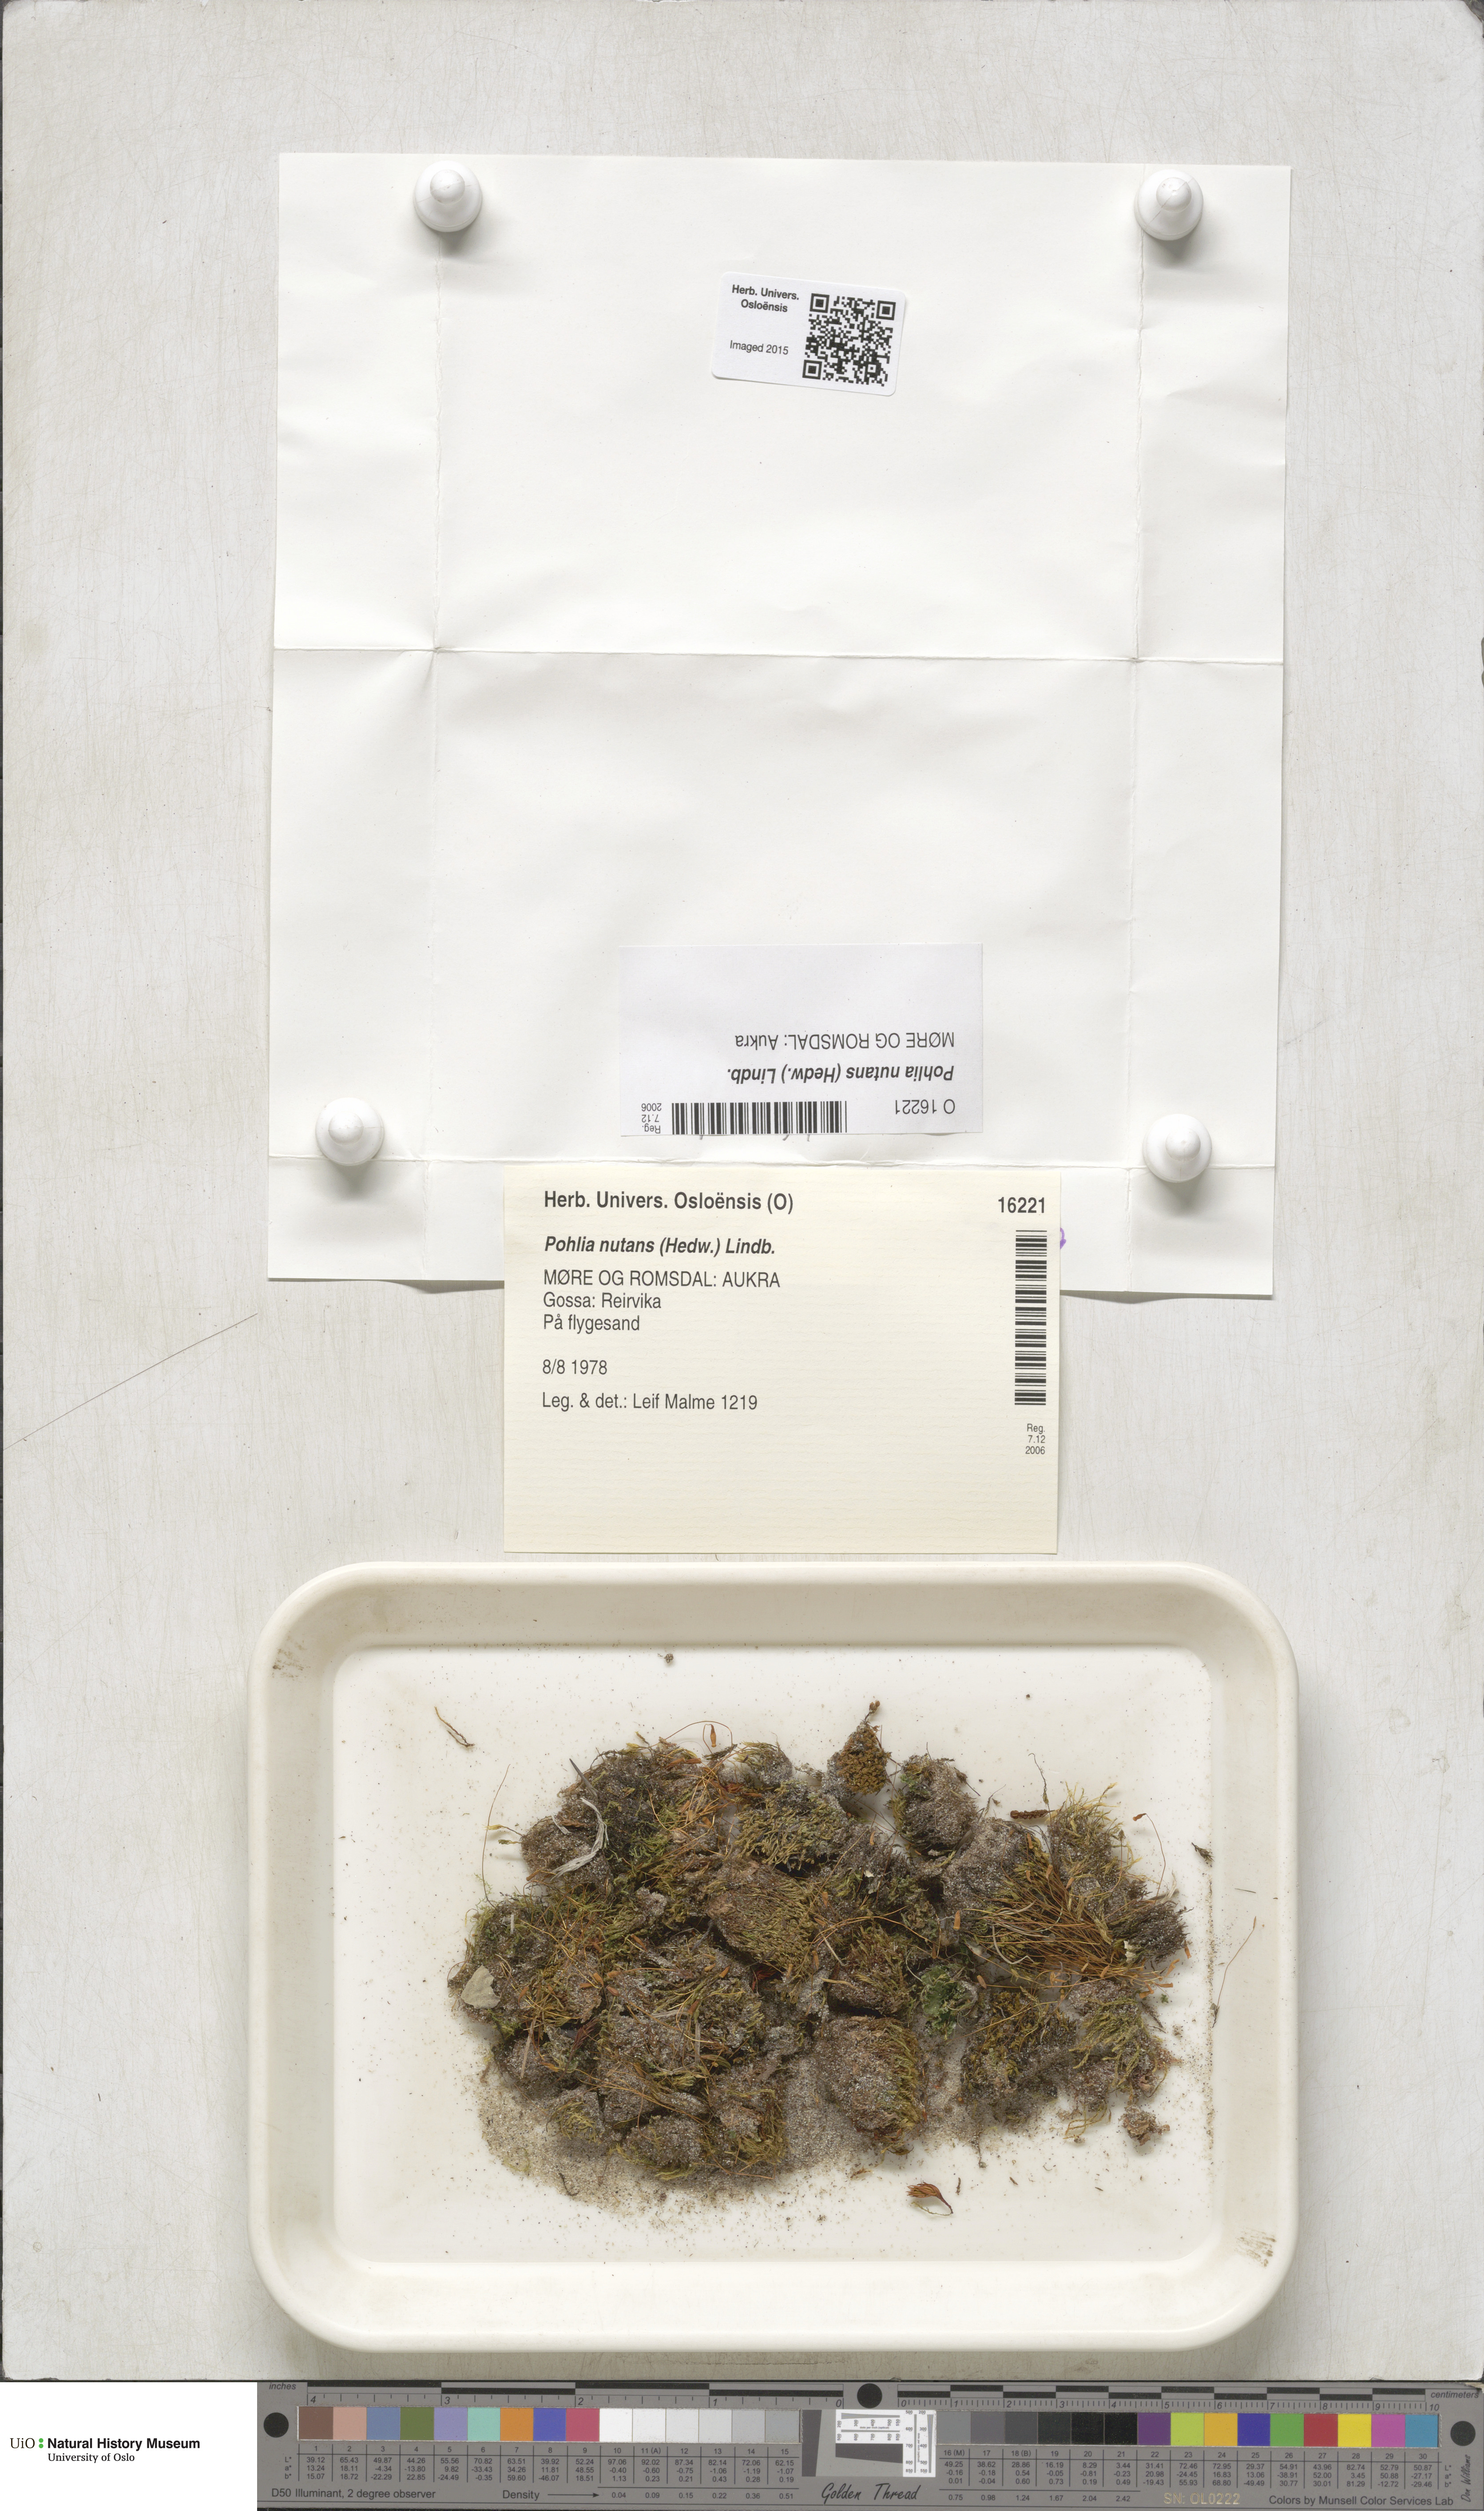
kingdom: Plantae
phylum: Bryophyta
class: Bryopsida
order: Bryales
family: Mniaceae
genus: Pohlia
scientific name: Pohlia nutans
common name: Nodding thread-moss
